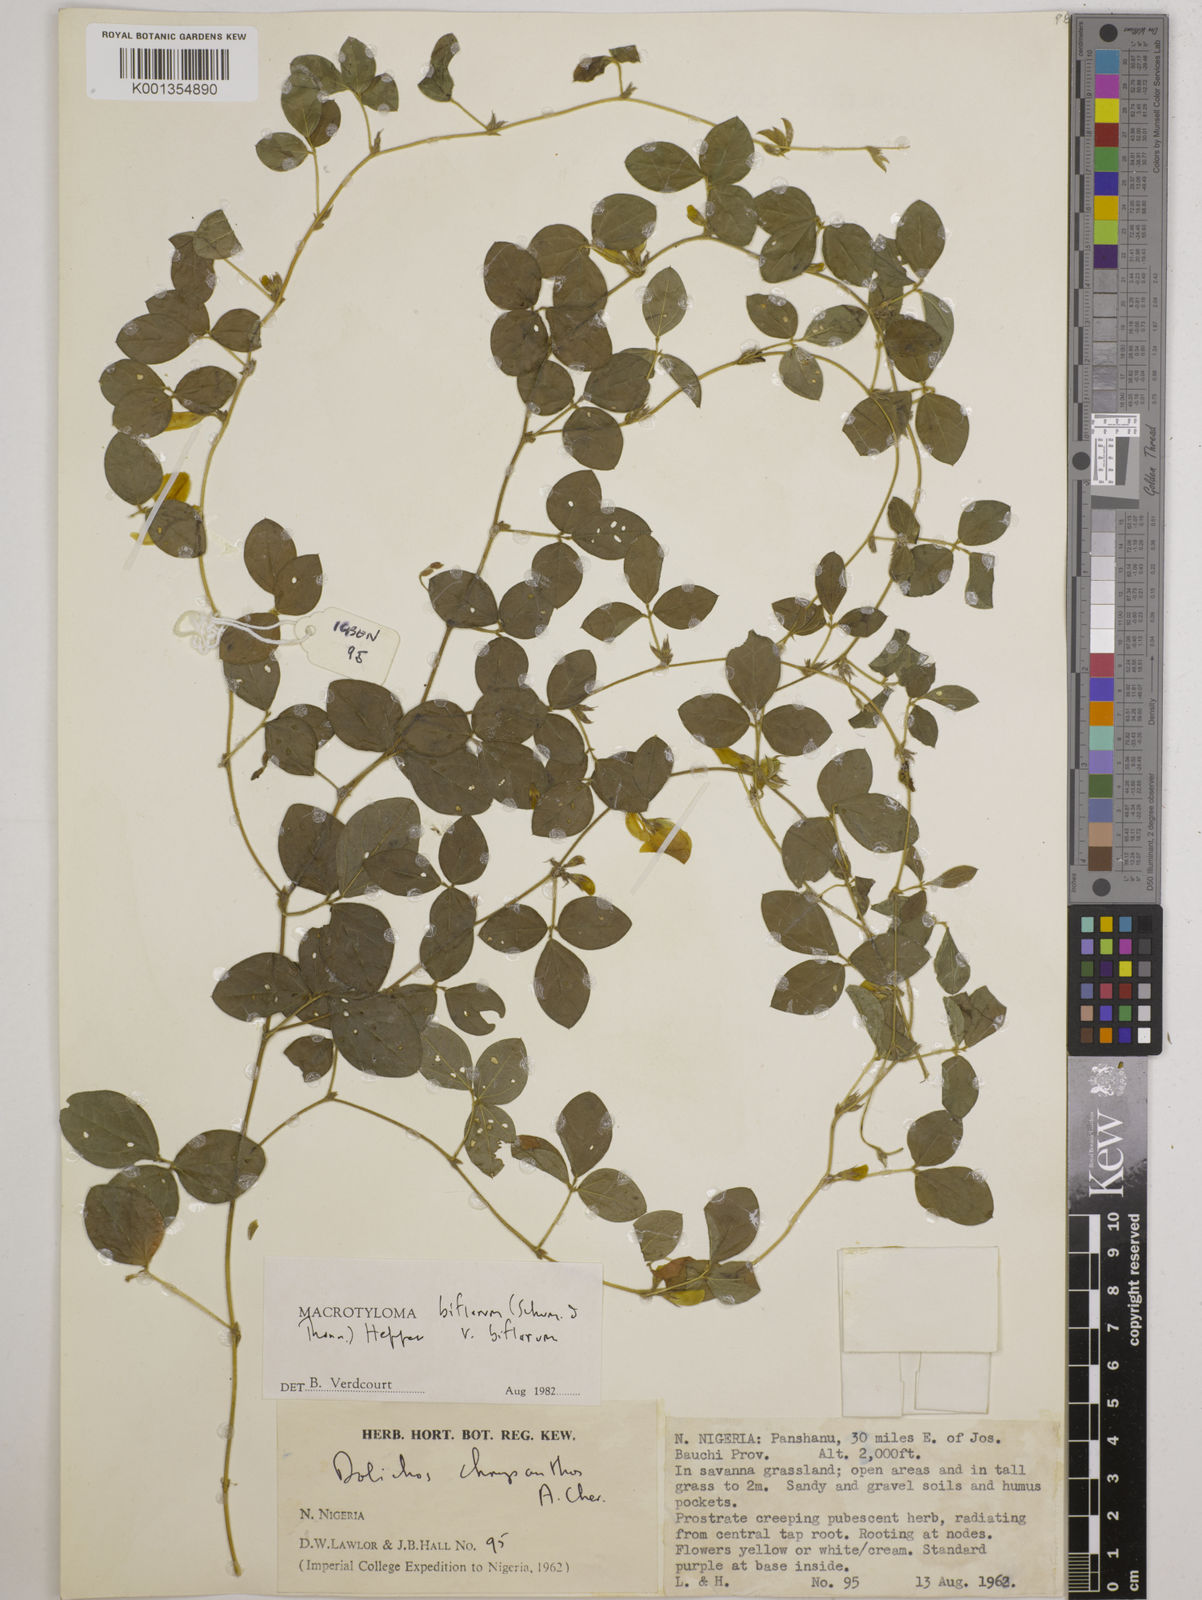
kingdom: Plantae
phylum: Tracheophyta
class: Magnoliopsida
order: Fabales
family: Fabaceae
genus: Macrotyloma
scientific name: Macrotyloma biflorum
